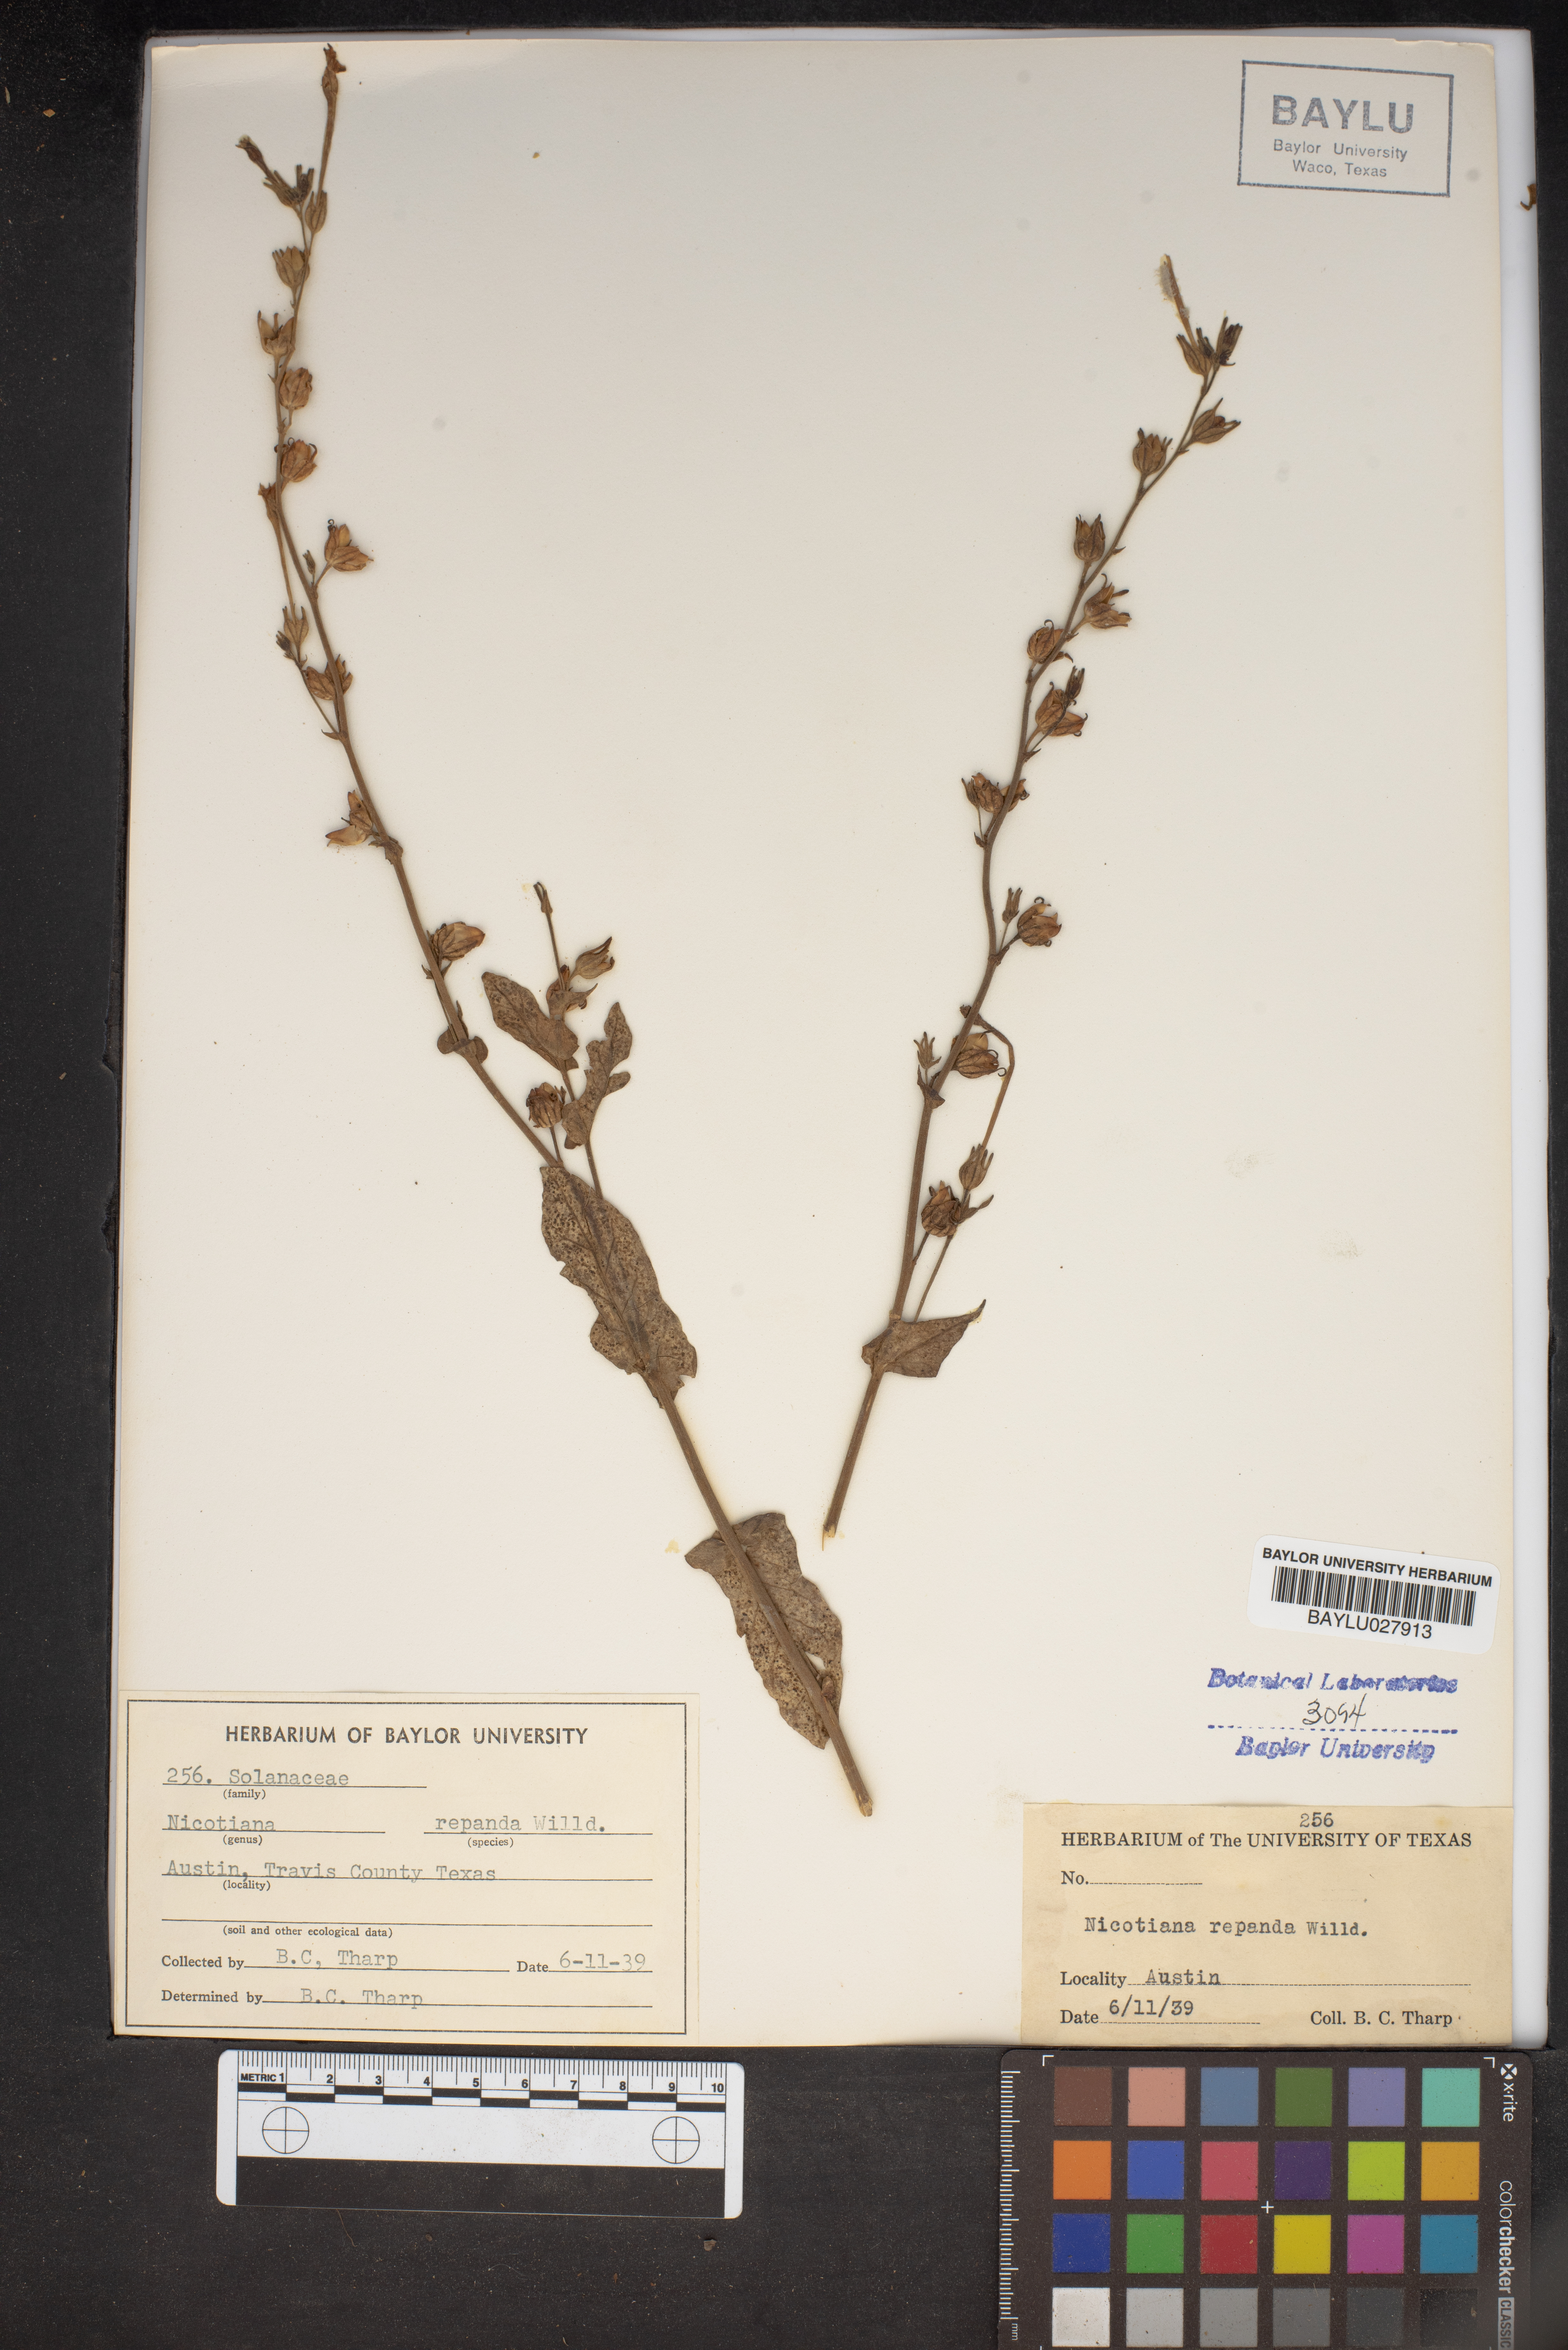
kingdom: Plantae
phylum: Tracheophyta
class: Magnoliopsida
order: Solanales
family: Solanaceae
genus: Nicotiana
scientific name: Nicotiana repanda
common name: Fiddle-leaf tobacco
